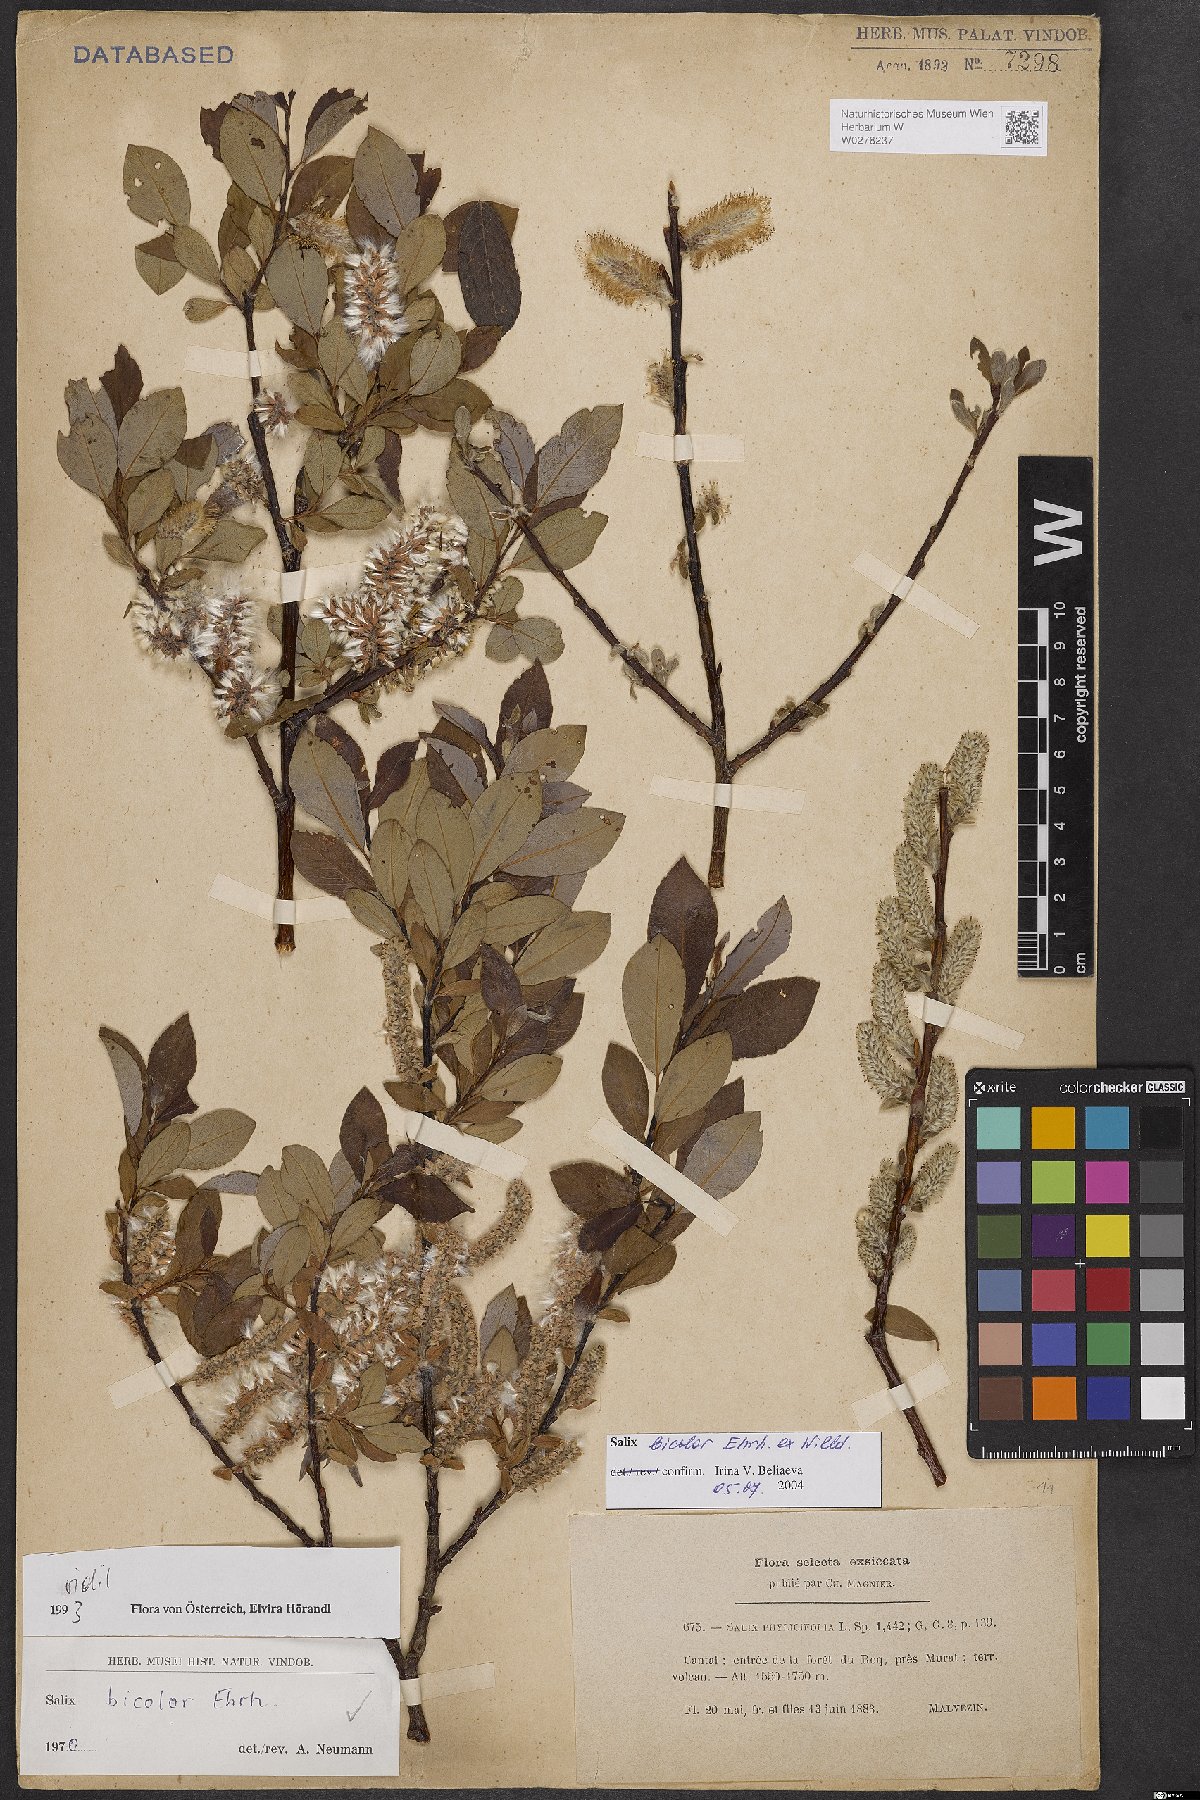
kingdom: Plantae
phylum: Tracheophyta
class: Magnoliopsida
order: Malpighiales
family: Salicaceae
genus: Salix
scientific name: Salix bicolor
